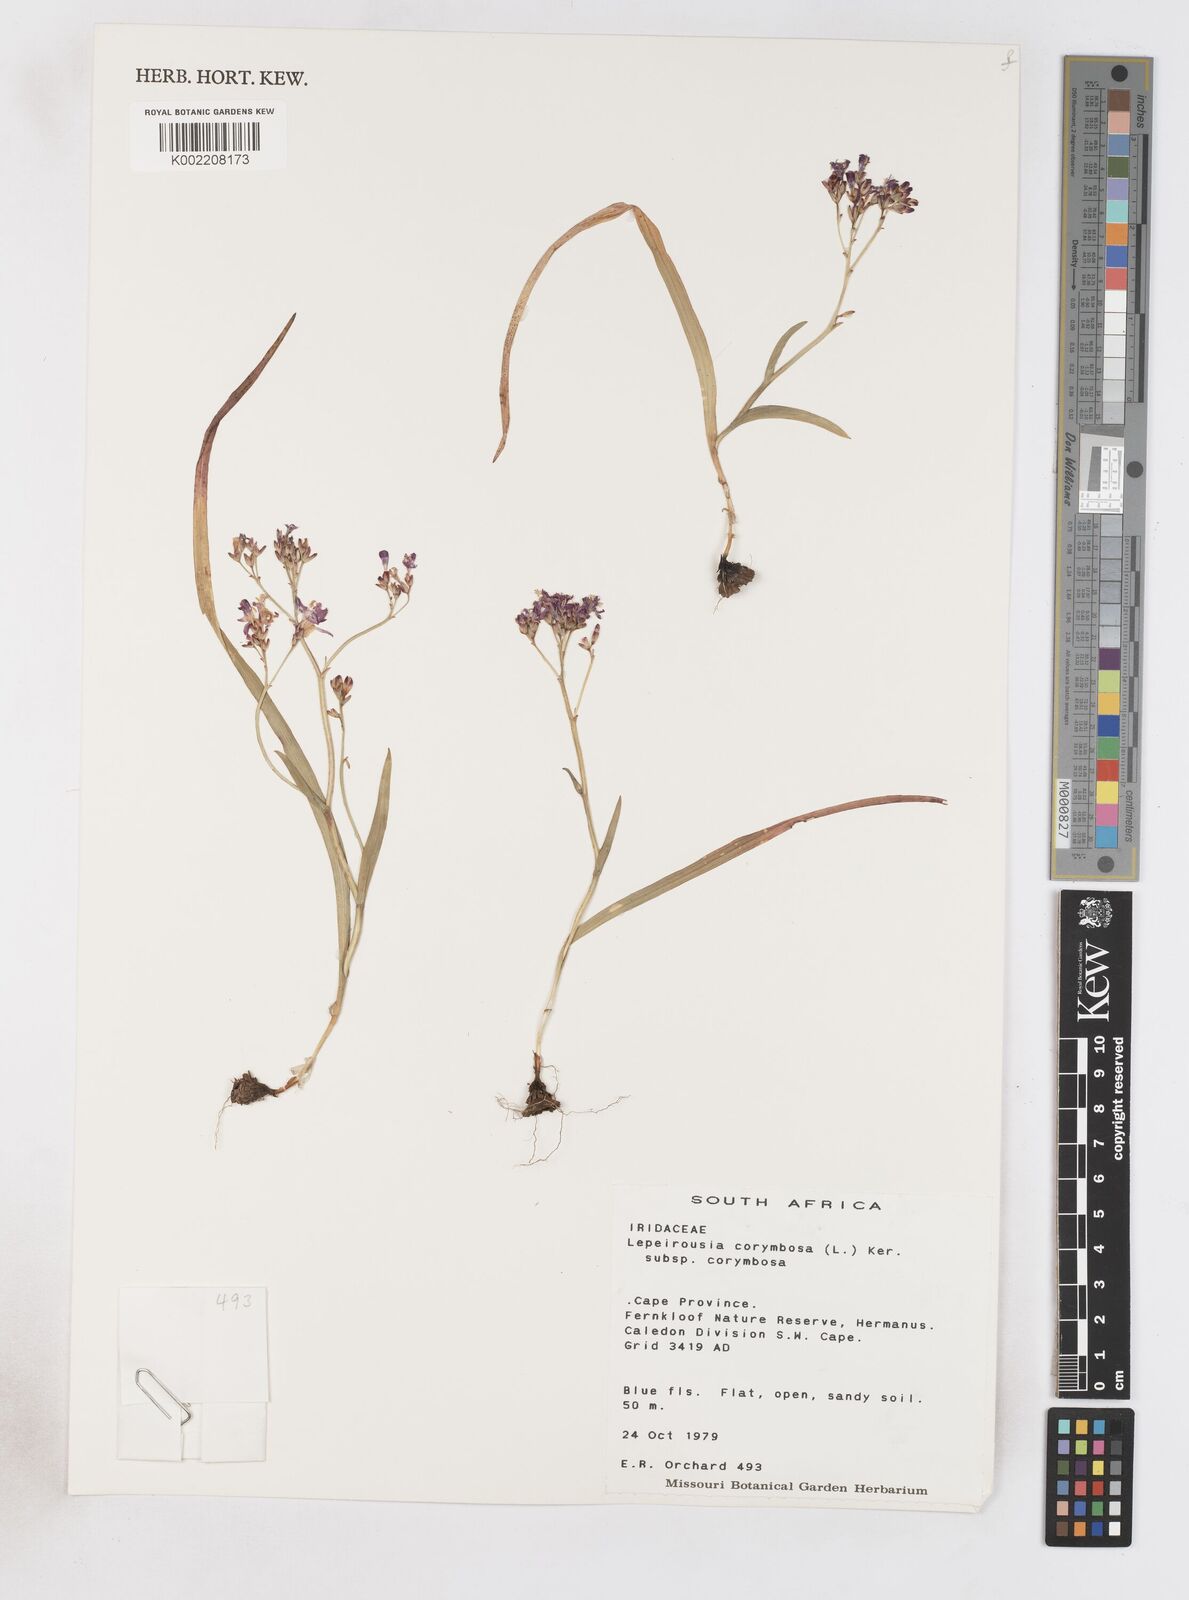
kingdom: Plantae
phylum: Tracheophyta
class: Liliopsida
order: Asparagales
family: Iridaceae
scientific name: Iridaceae
